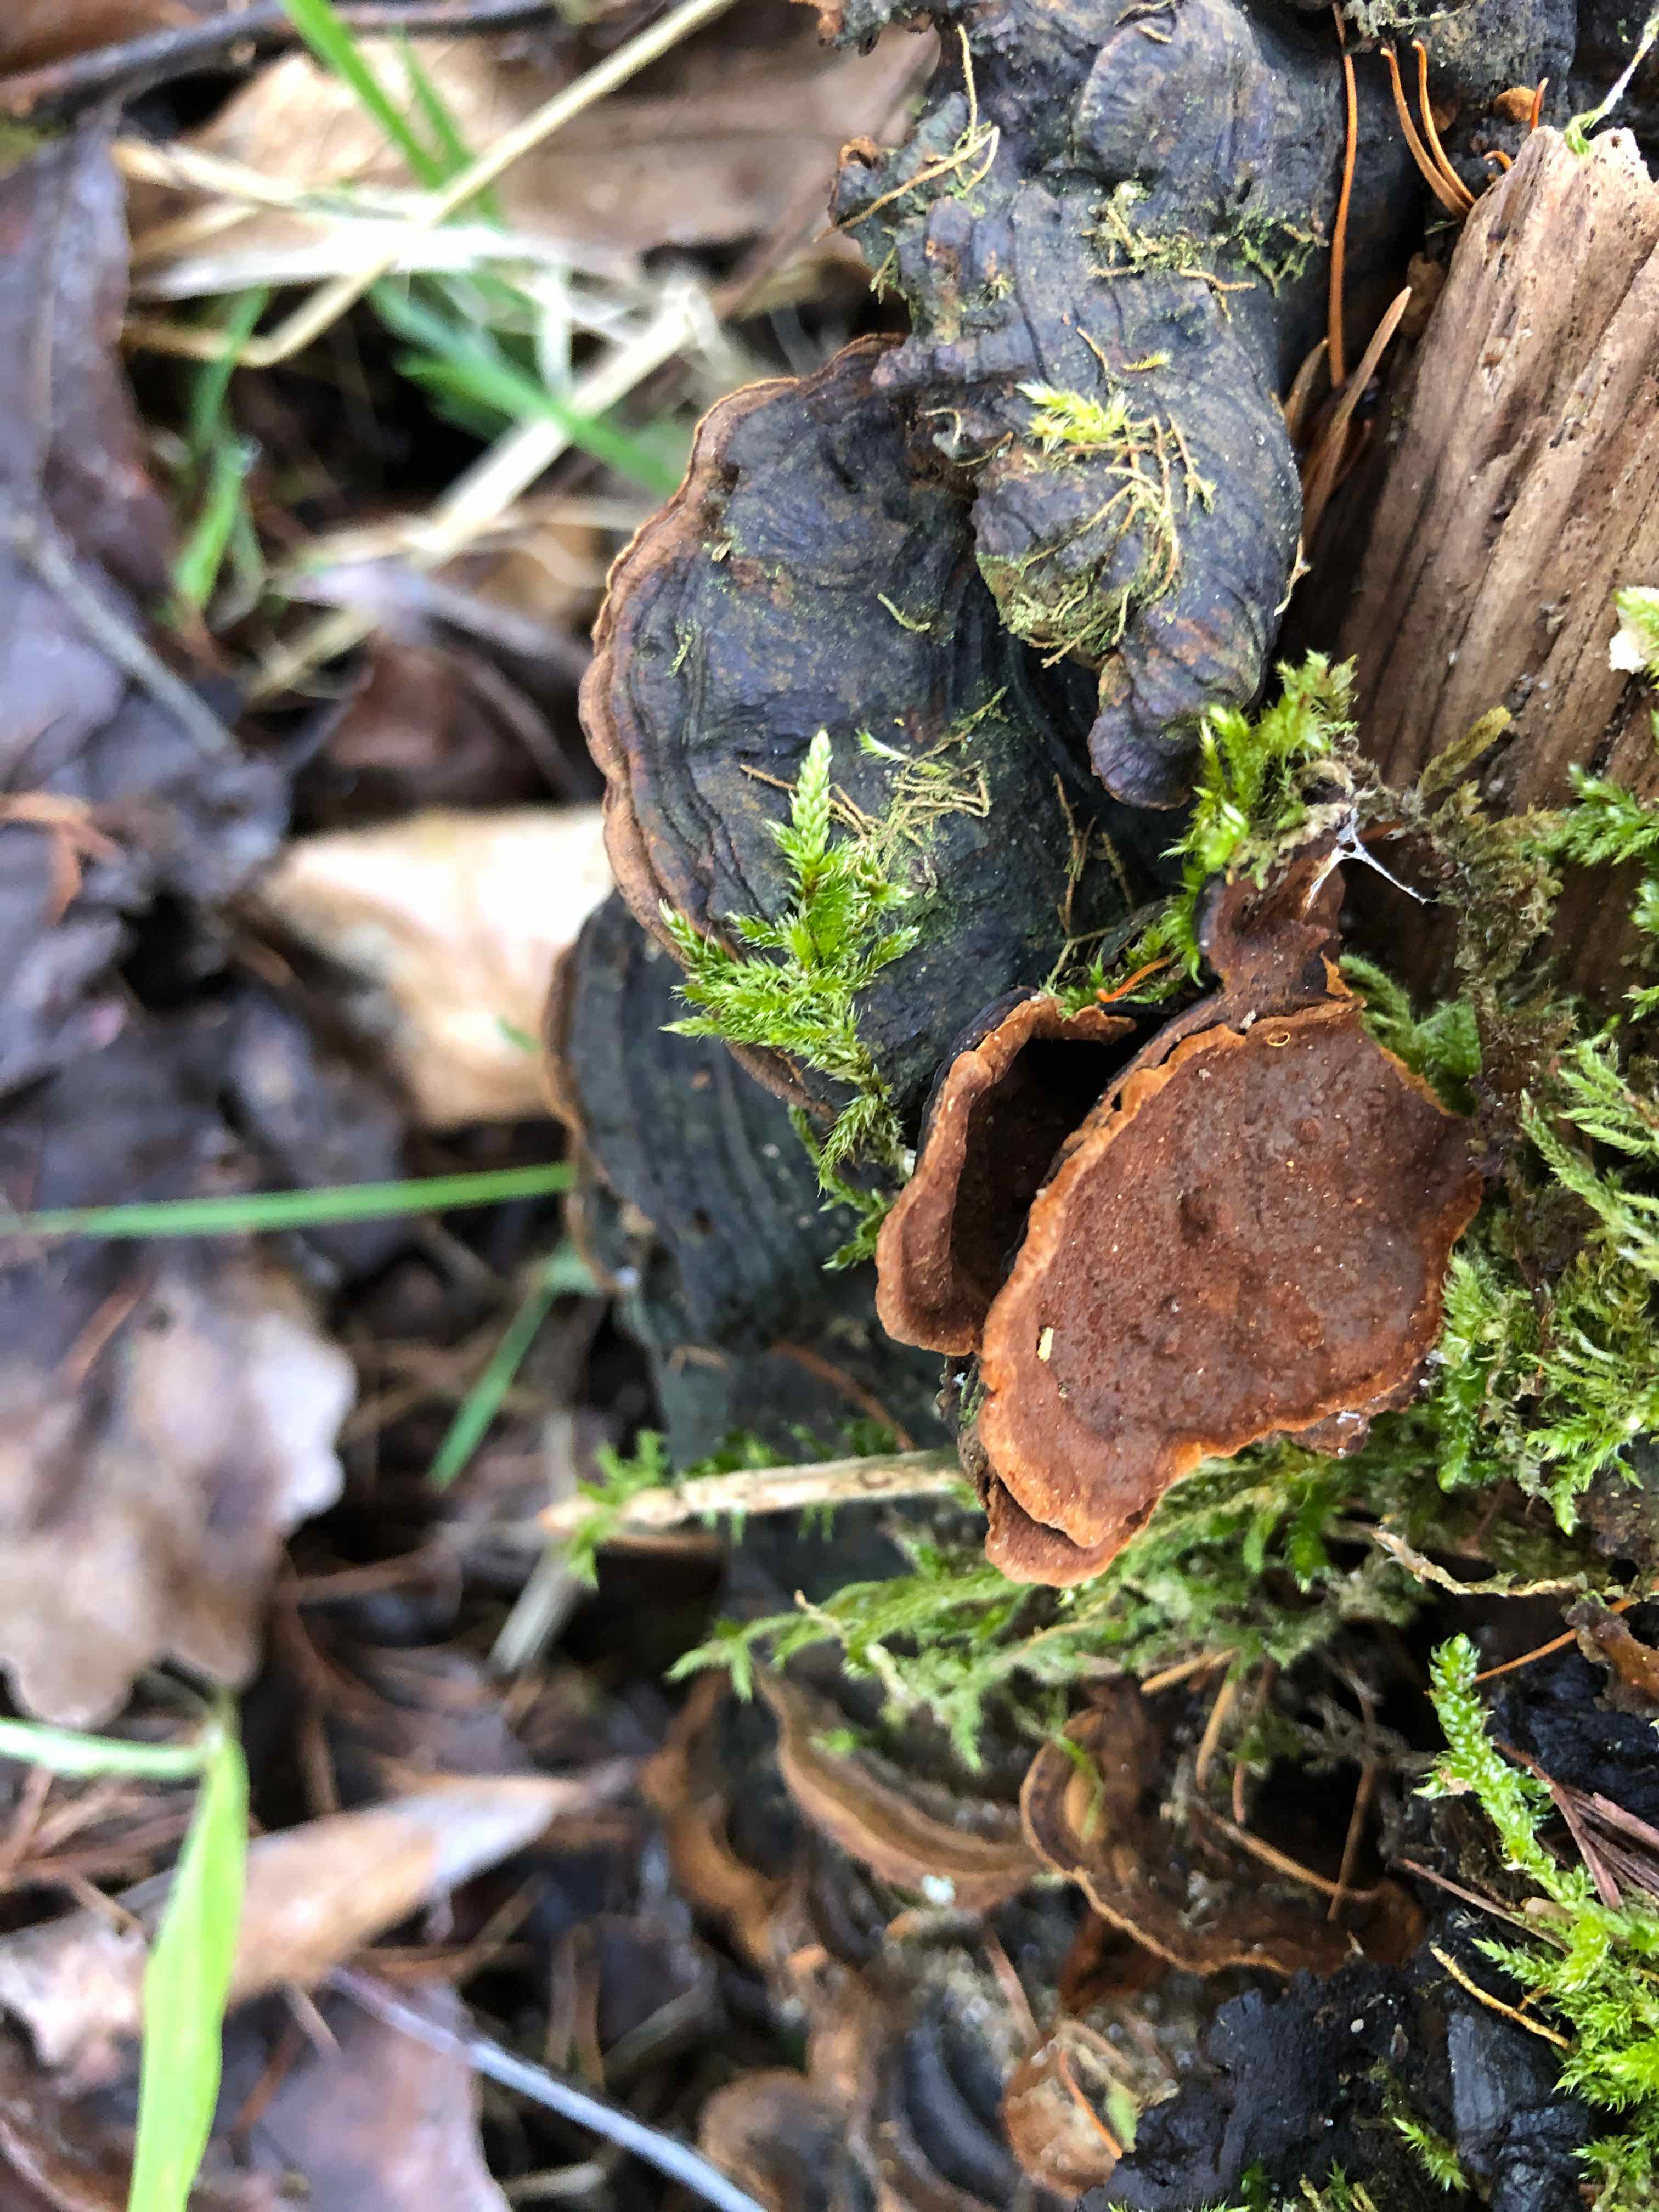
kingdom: Fungi
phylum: Basidiomycota
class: Agaricomycetes
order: Hymenochaetales
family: Hymenochaetaceae
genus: Hymenochaete
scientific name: Hymenochaete rubiginosa
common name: stiv ruslædersvamp
